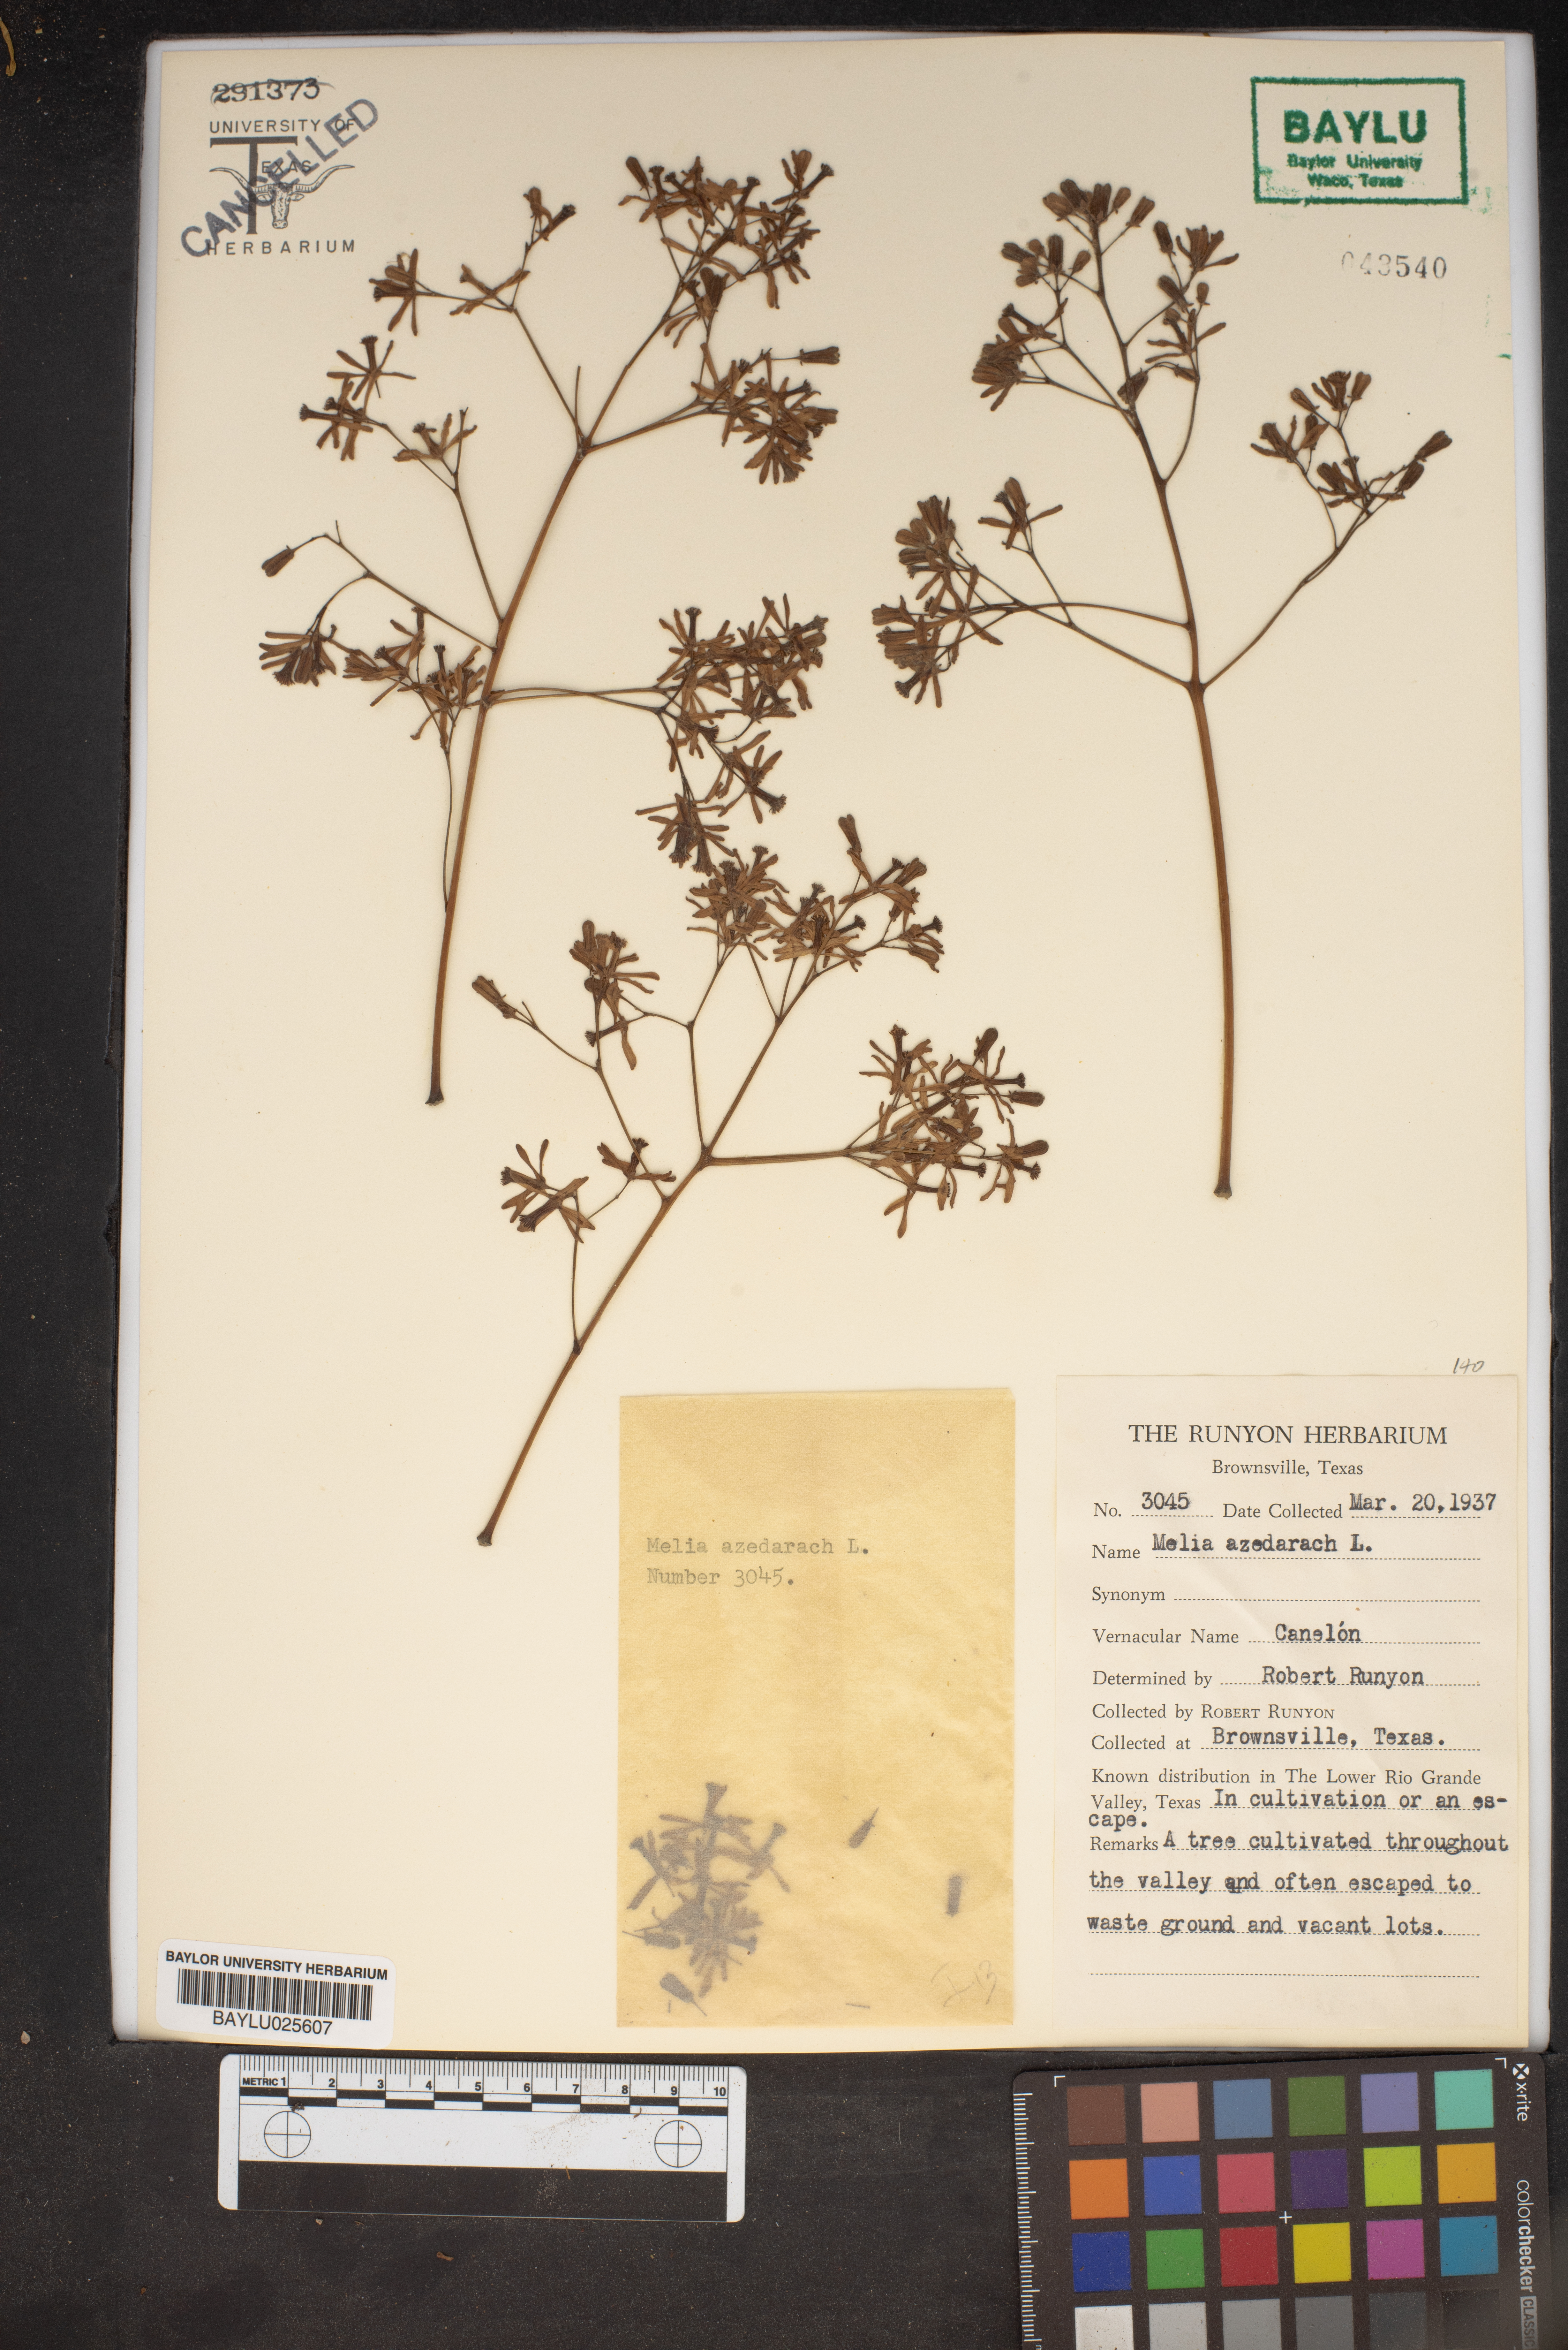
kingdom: Plantae
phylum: Tracheophyta
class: Magnoliopsida
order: Sapindales
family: Meliaceae
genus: Melia
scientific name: Melia azedarach
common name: Chinaberrytree
